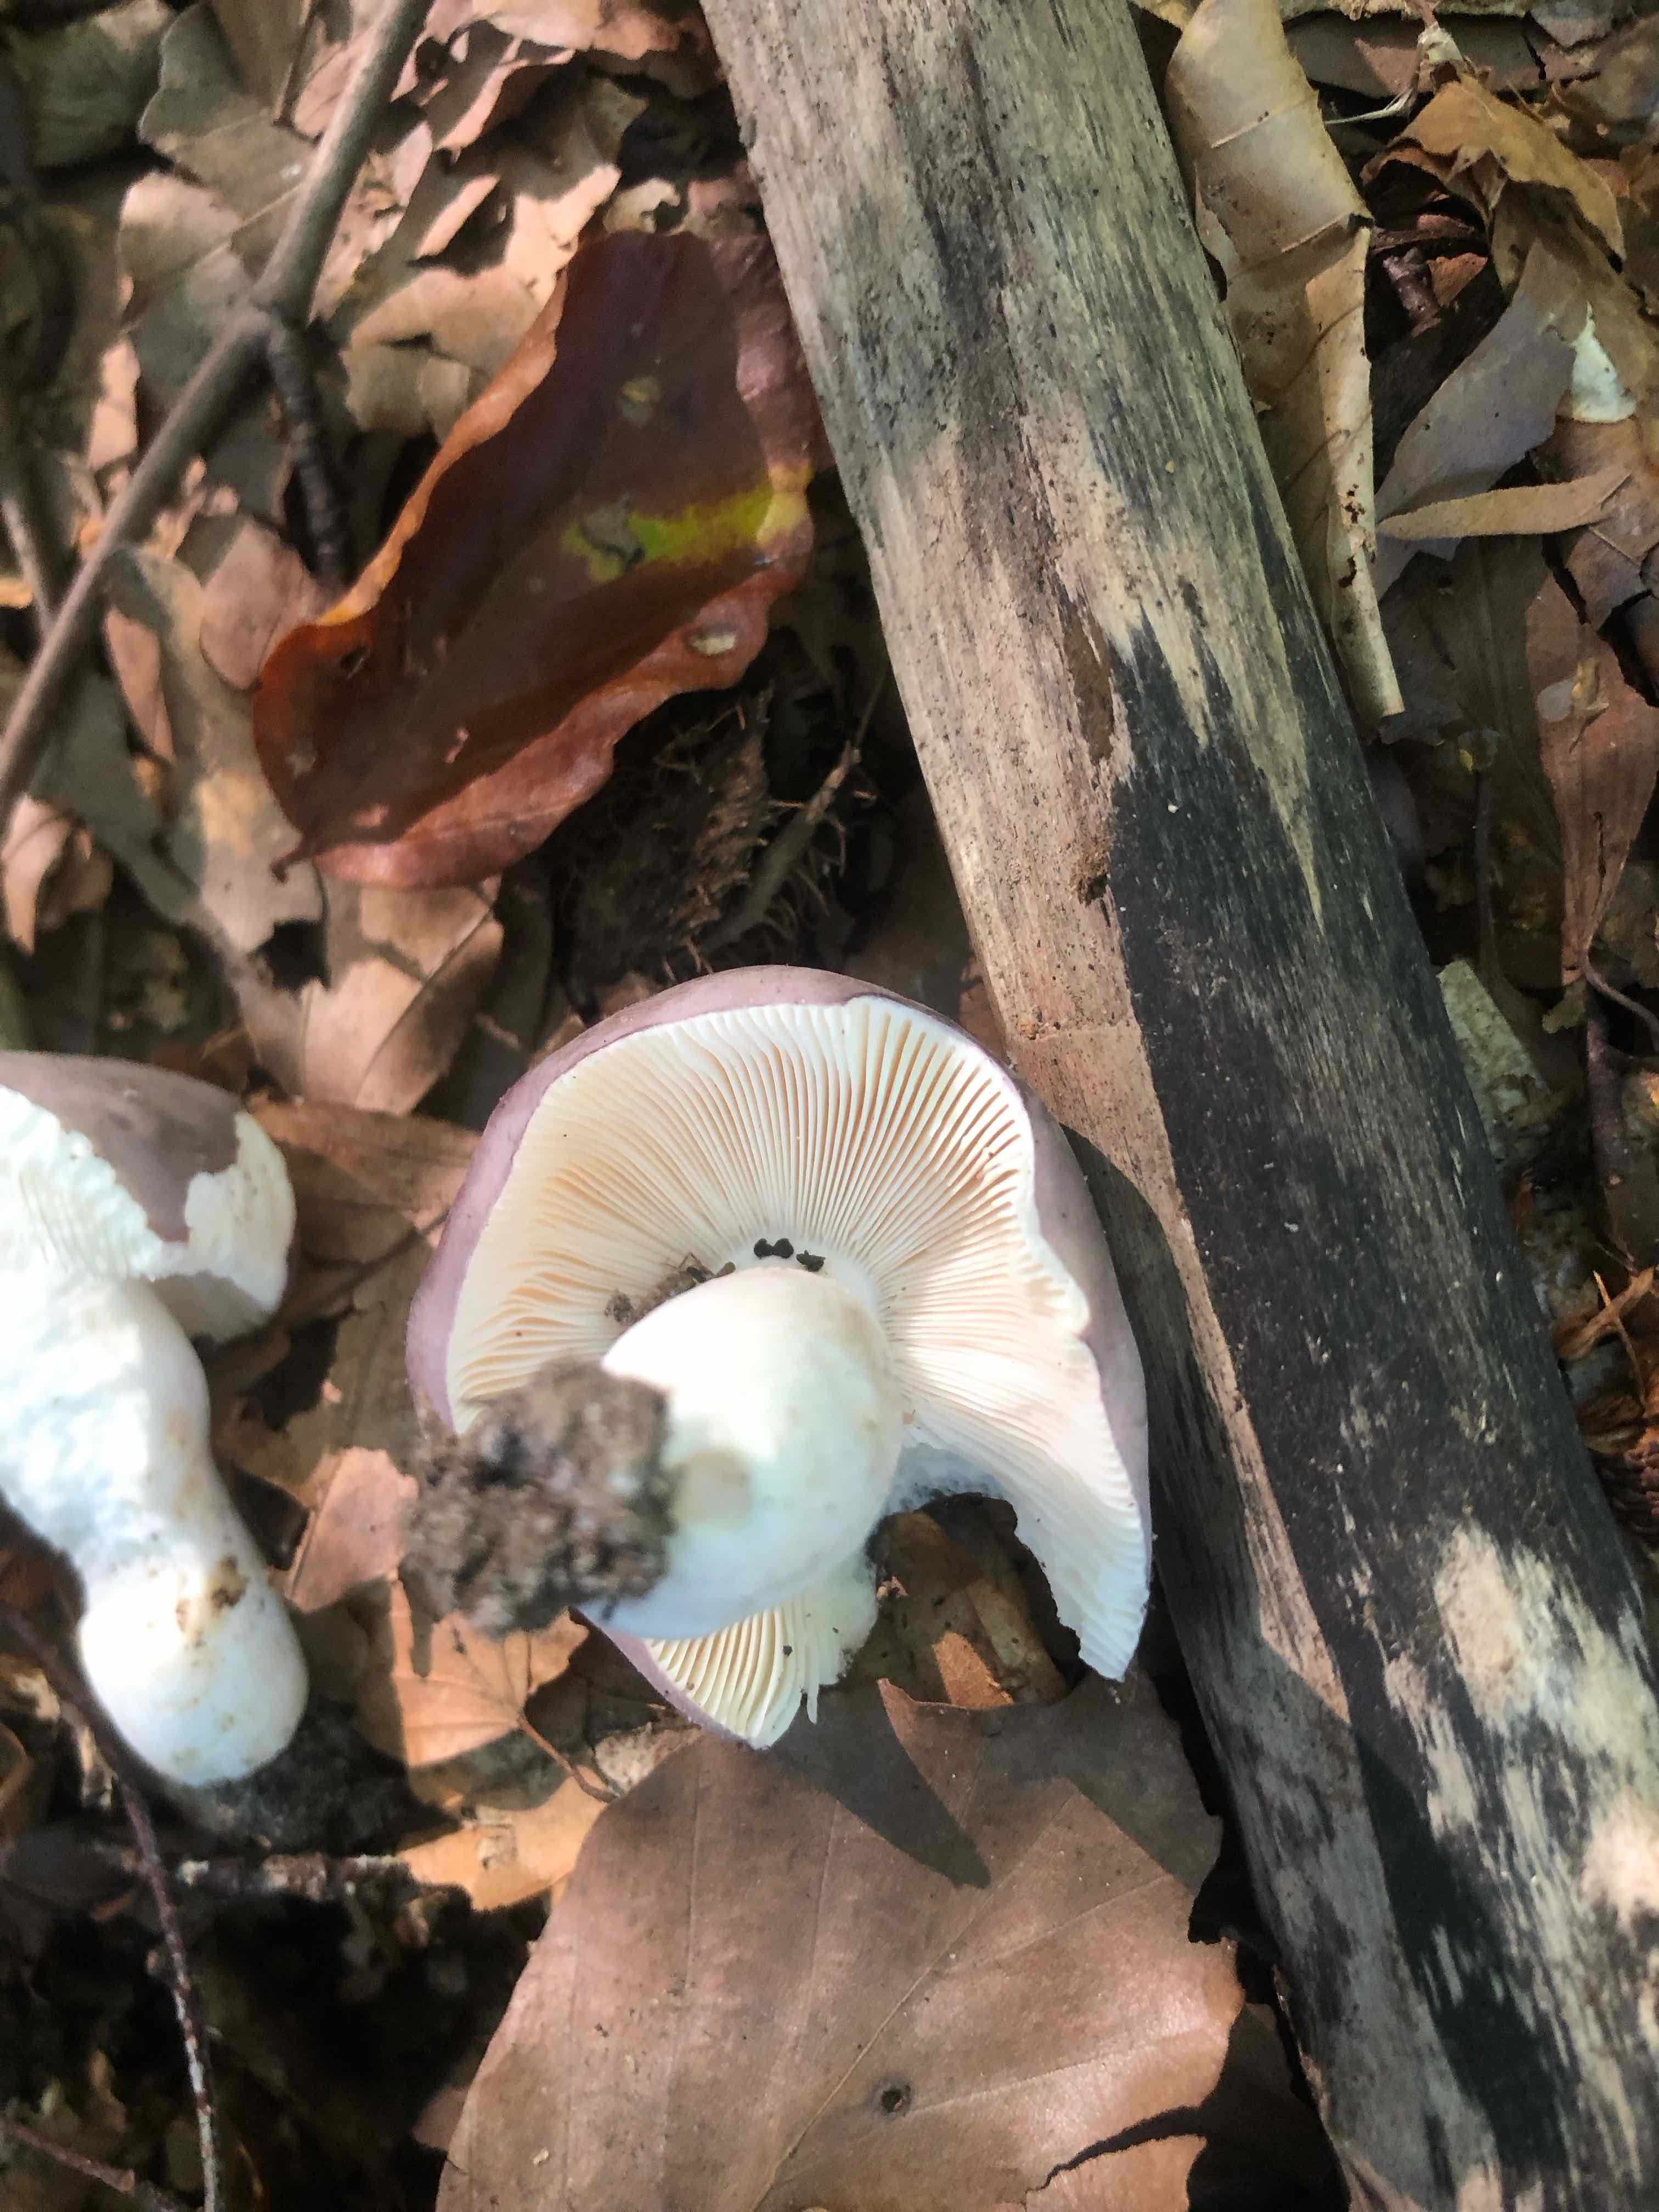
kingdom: Fungi
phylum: Basidiomycota
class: Agaricomycetes
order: Russulales
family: Russulaceae
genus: Russula
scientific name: Russula
